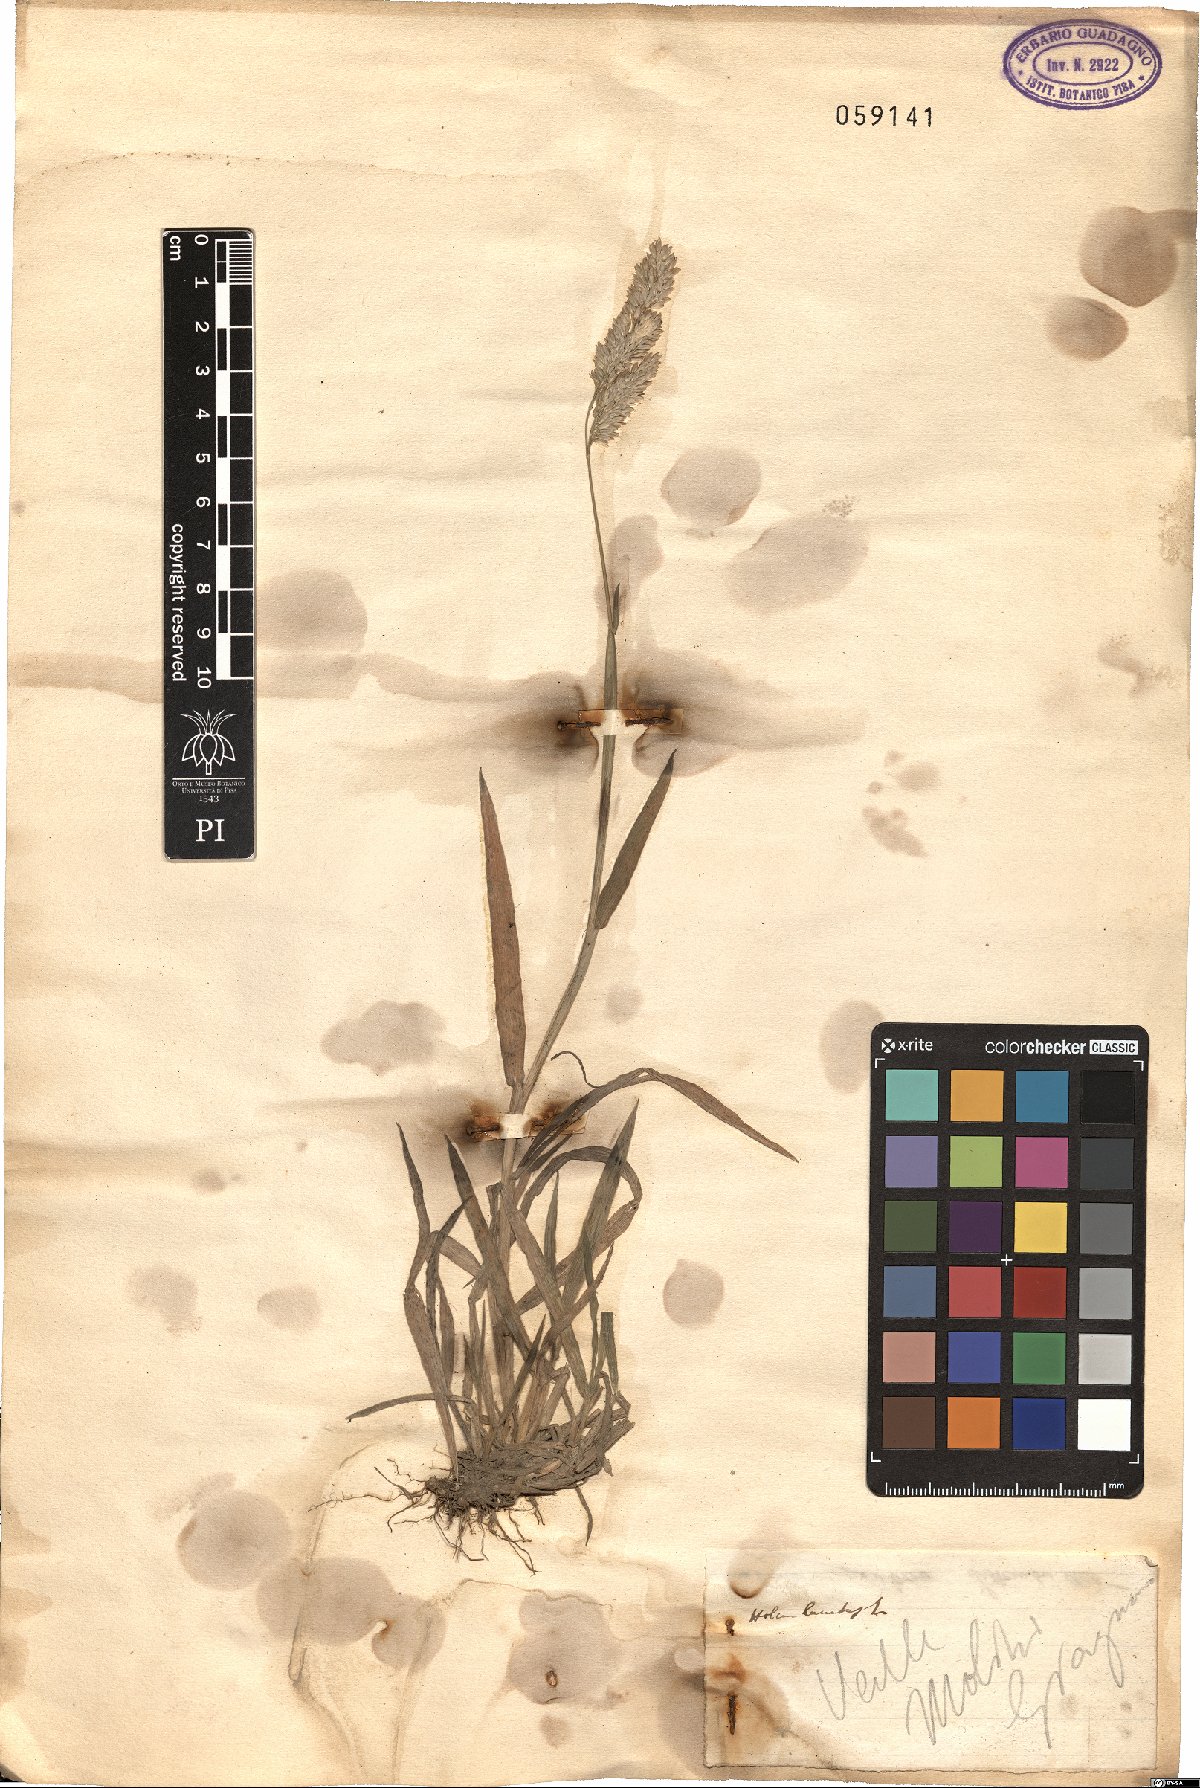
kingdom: Plantae
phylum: Tracheophyta
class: Liliopsida
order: Poales
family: Poaceae
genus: Holcus
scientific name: Holcus lanatus
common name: Yorkshire-fog
